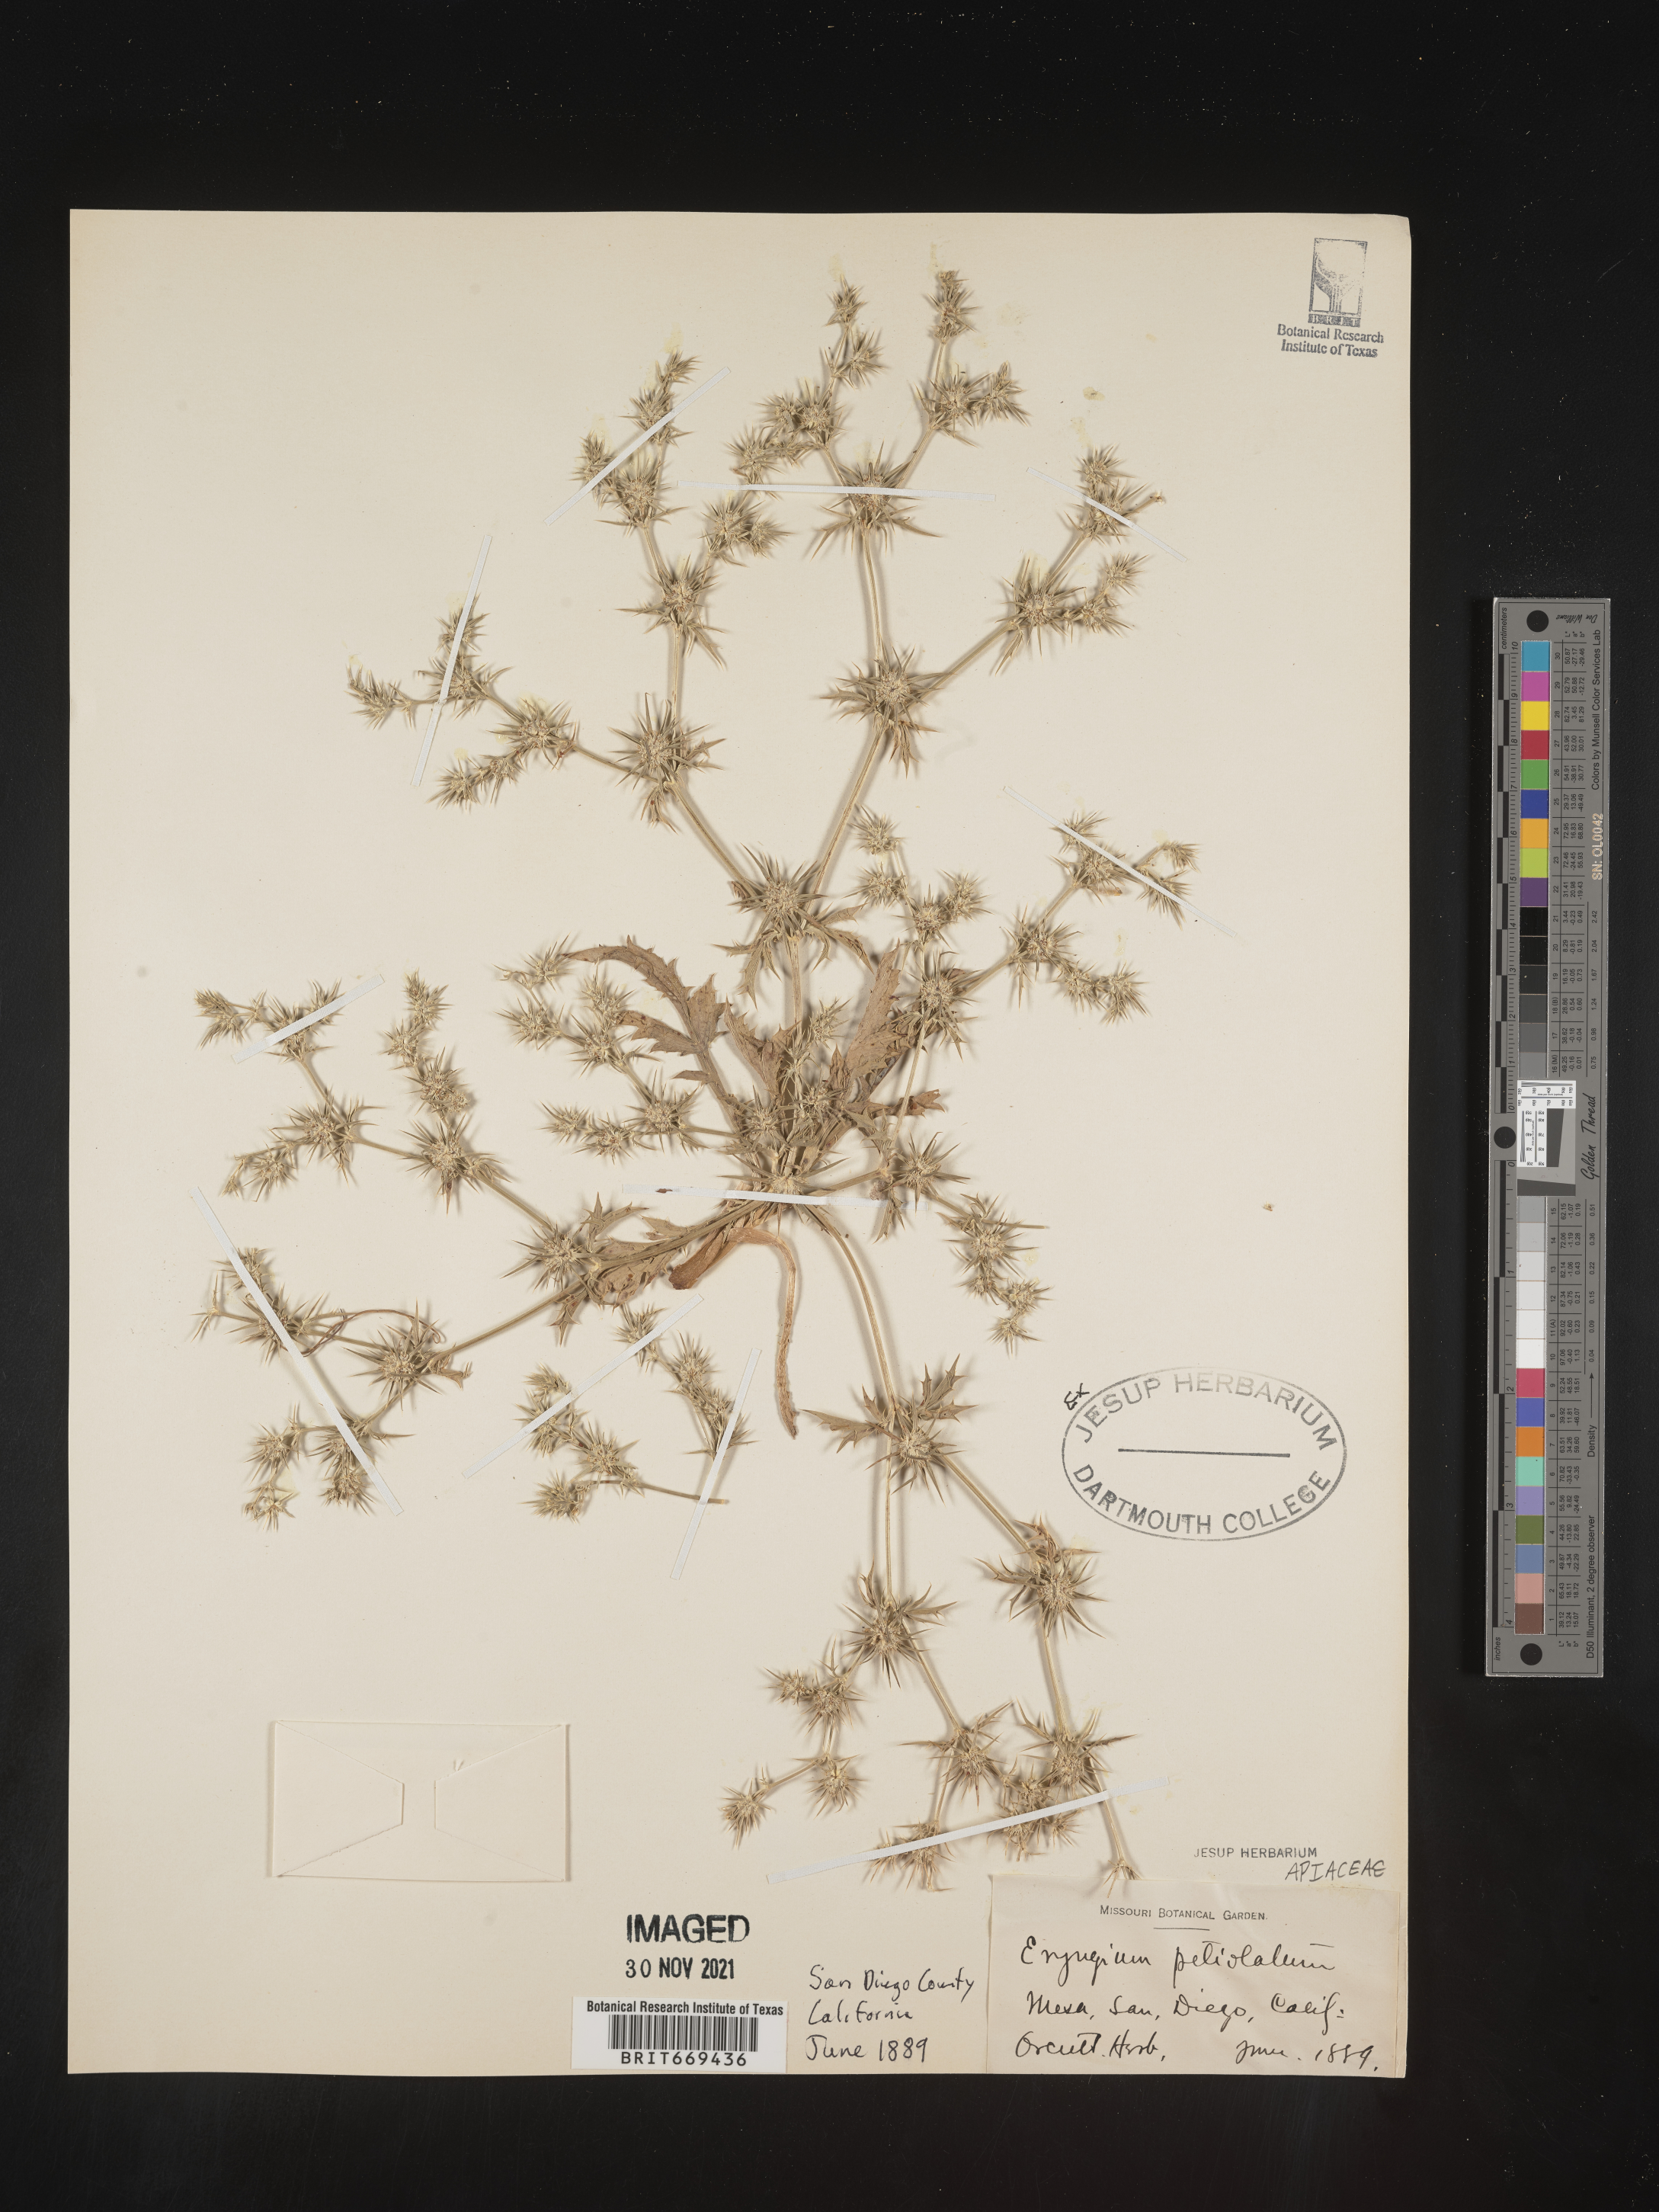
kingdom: Plantae
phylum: Tracheophyta
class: Magnoliopsida
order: Apiales
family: Apiaceae
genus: Eryngium
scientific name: Eryngium
